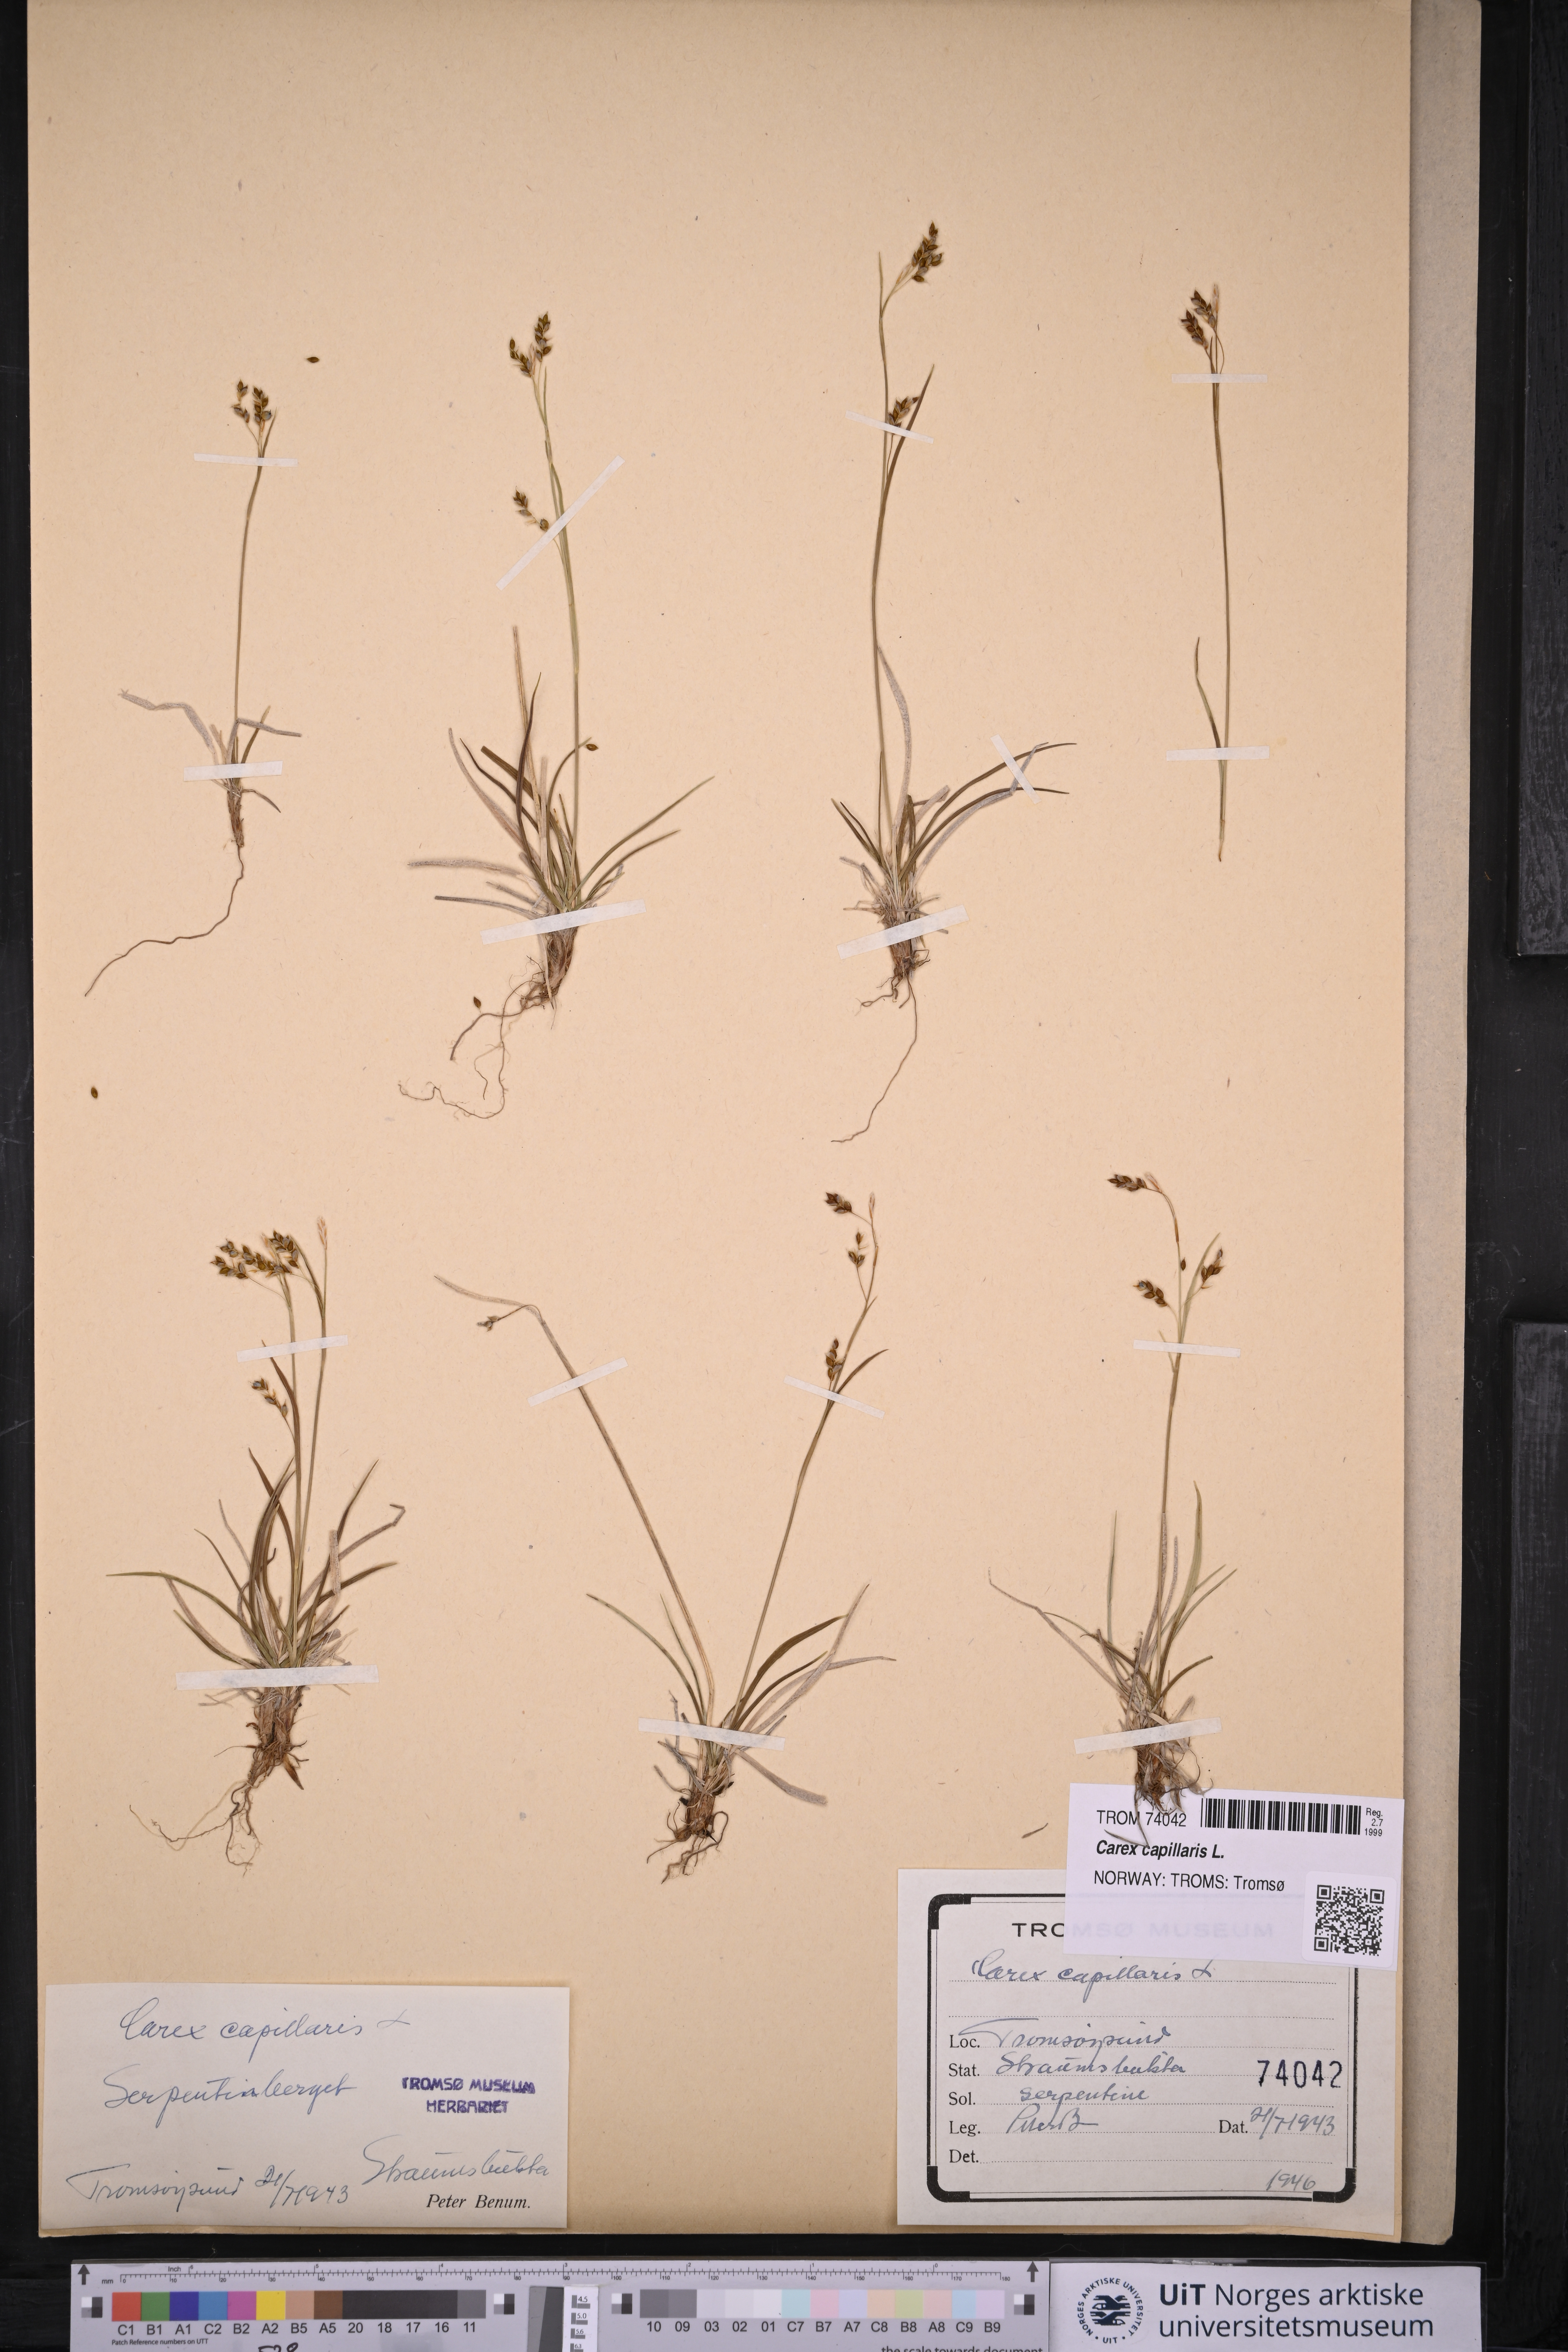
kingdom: Plantae
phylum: Tracheophyta
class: Liliopsida
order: Poales
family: Cyperaceae
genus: Carex
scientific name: Carex capillaris
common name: Hair sedge
